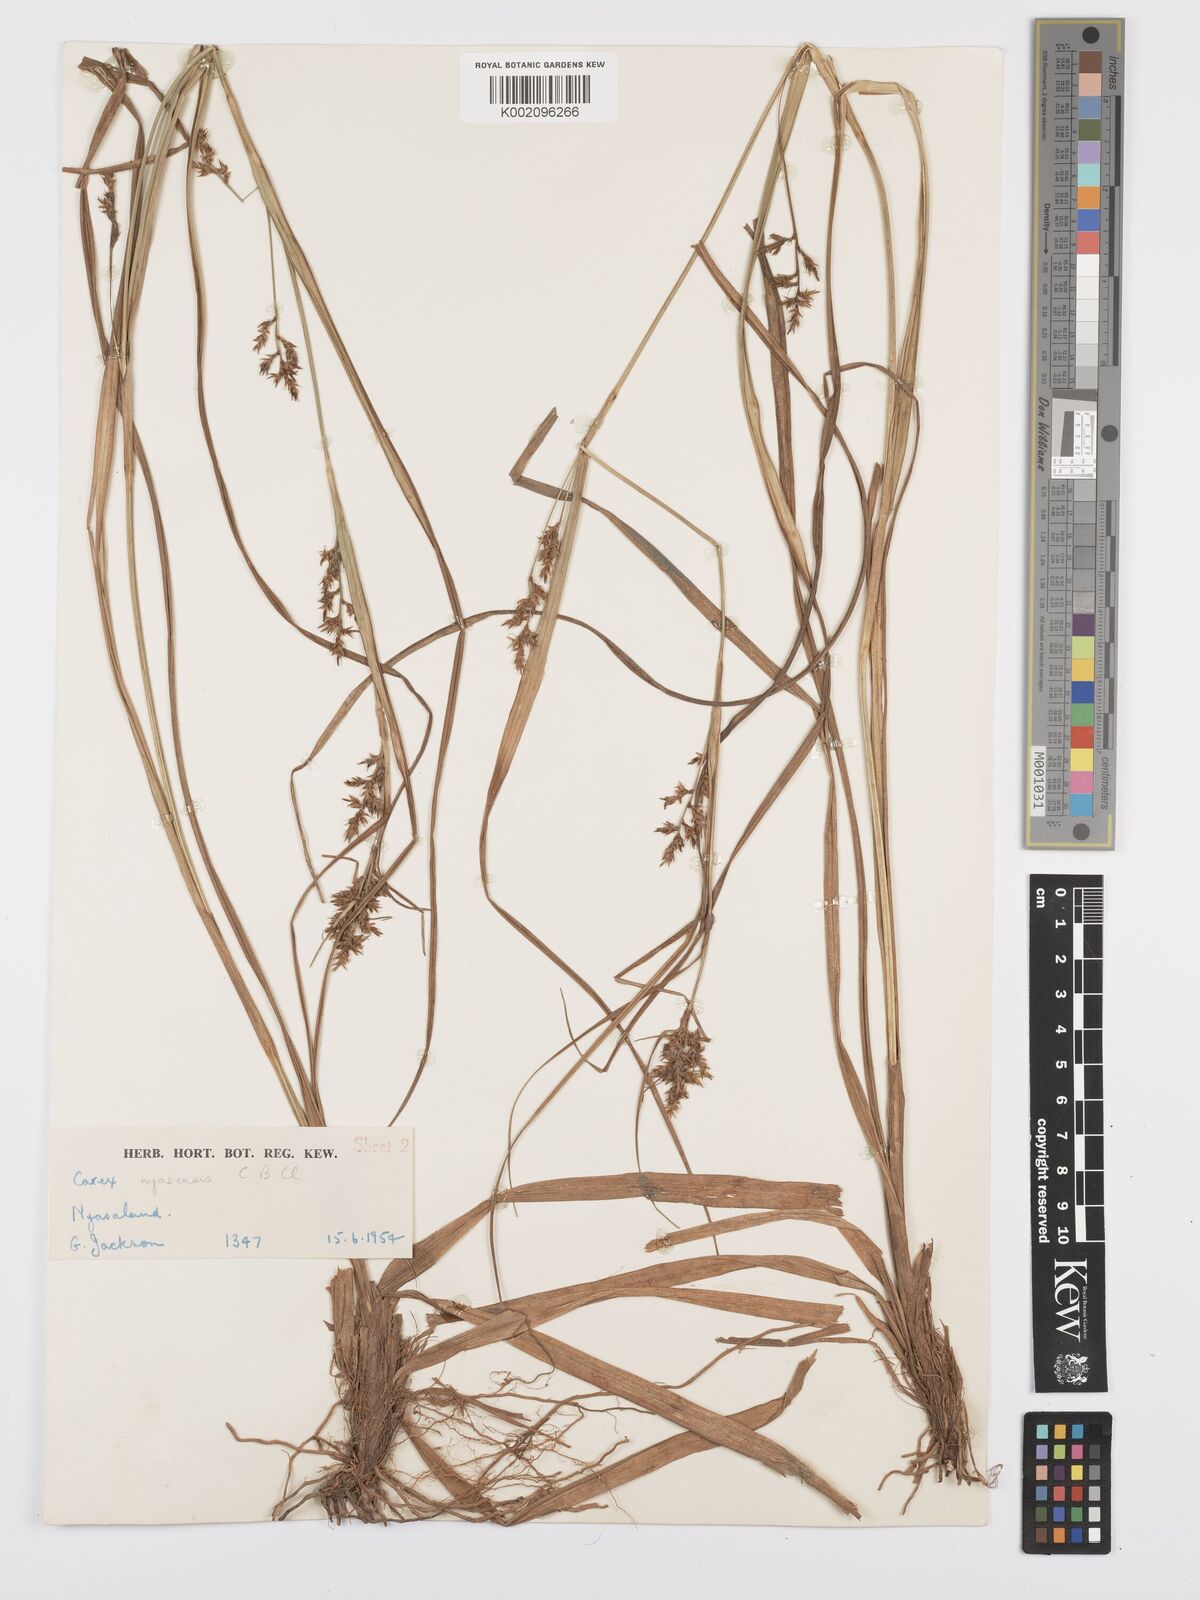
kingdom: Plantae
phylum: Tracheophyta
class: Liliopsida
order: Poales
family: Cyperaceae
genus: Carex
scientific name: Carex spicatopaniculata
